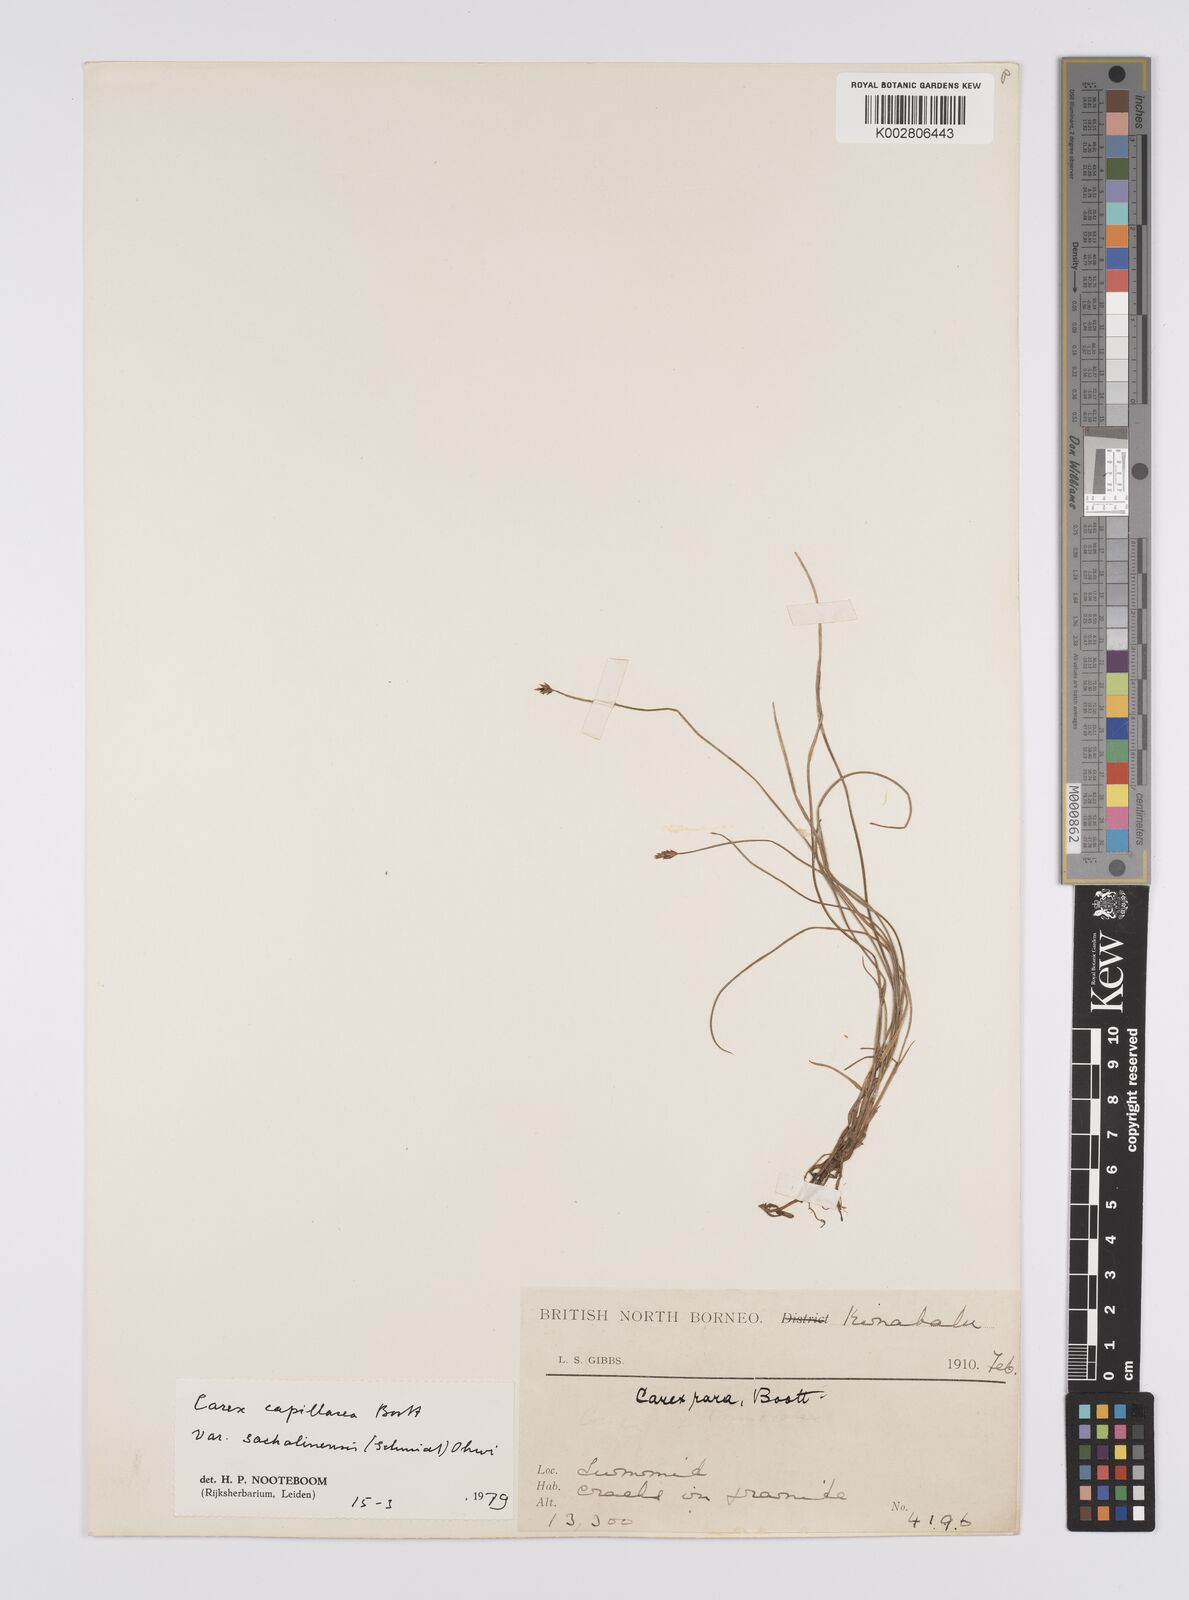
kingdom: Plantae
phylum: Tracheophyta
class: Liliopsida
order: Poales
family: Cyperaceae
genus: Carex
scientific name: Carex capillacea
